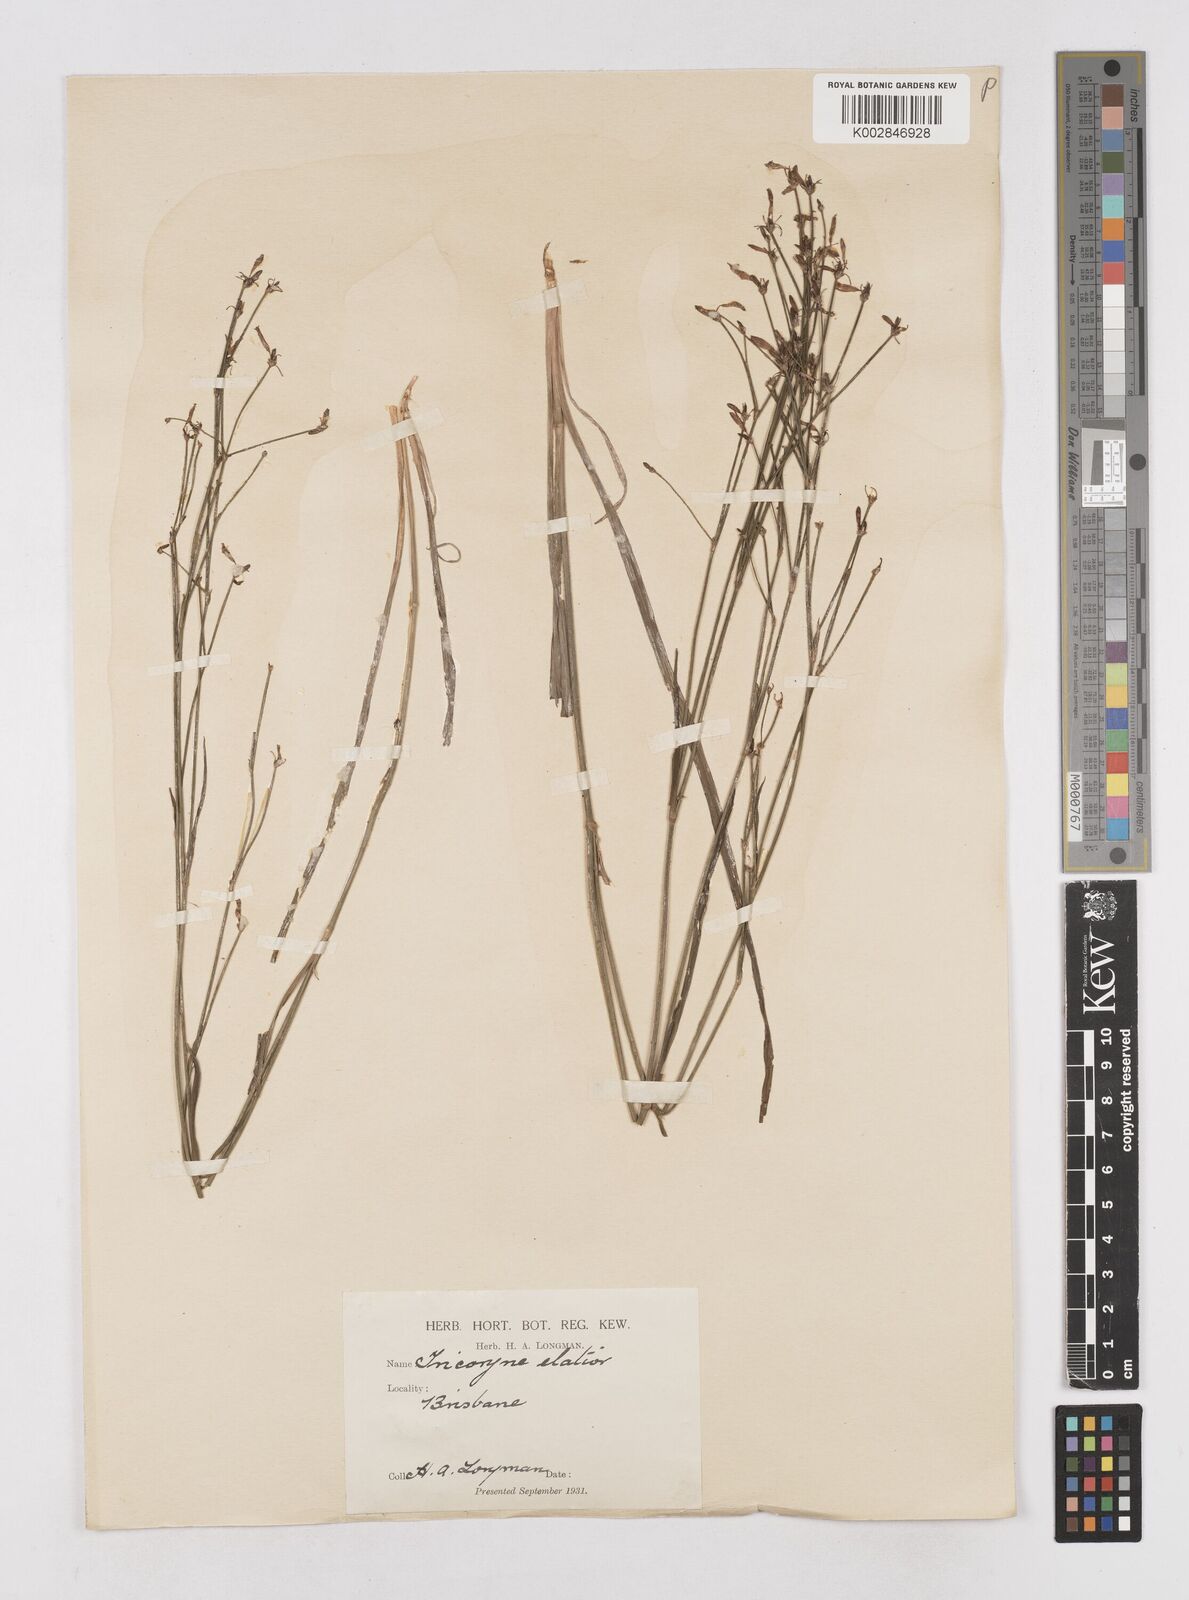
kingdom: Plantae
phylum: Tracheophyta
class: Liliopsida
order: Asparagales
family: Asphodelaceae
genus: Tricoryne
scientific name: Tricoryne elatior
